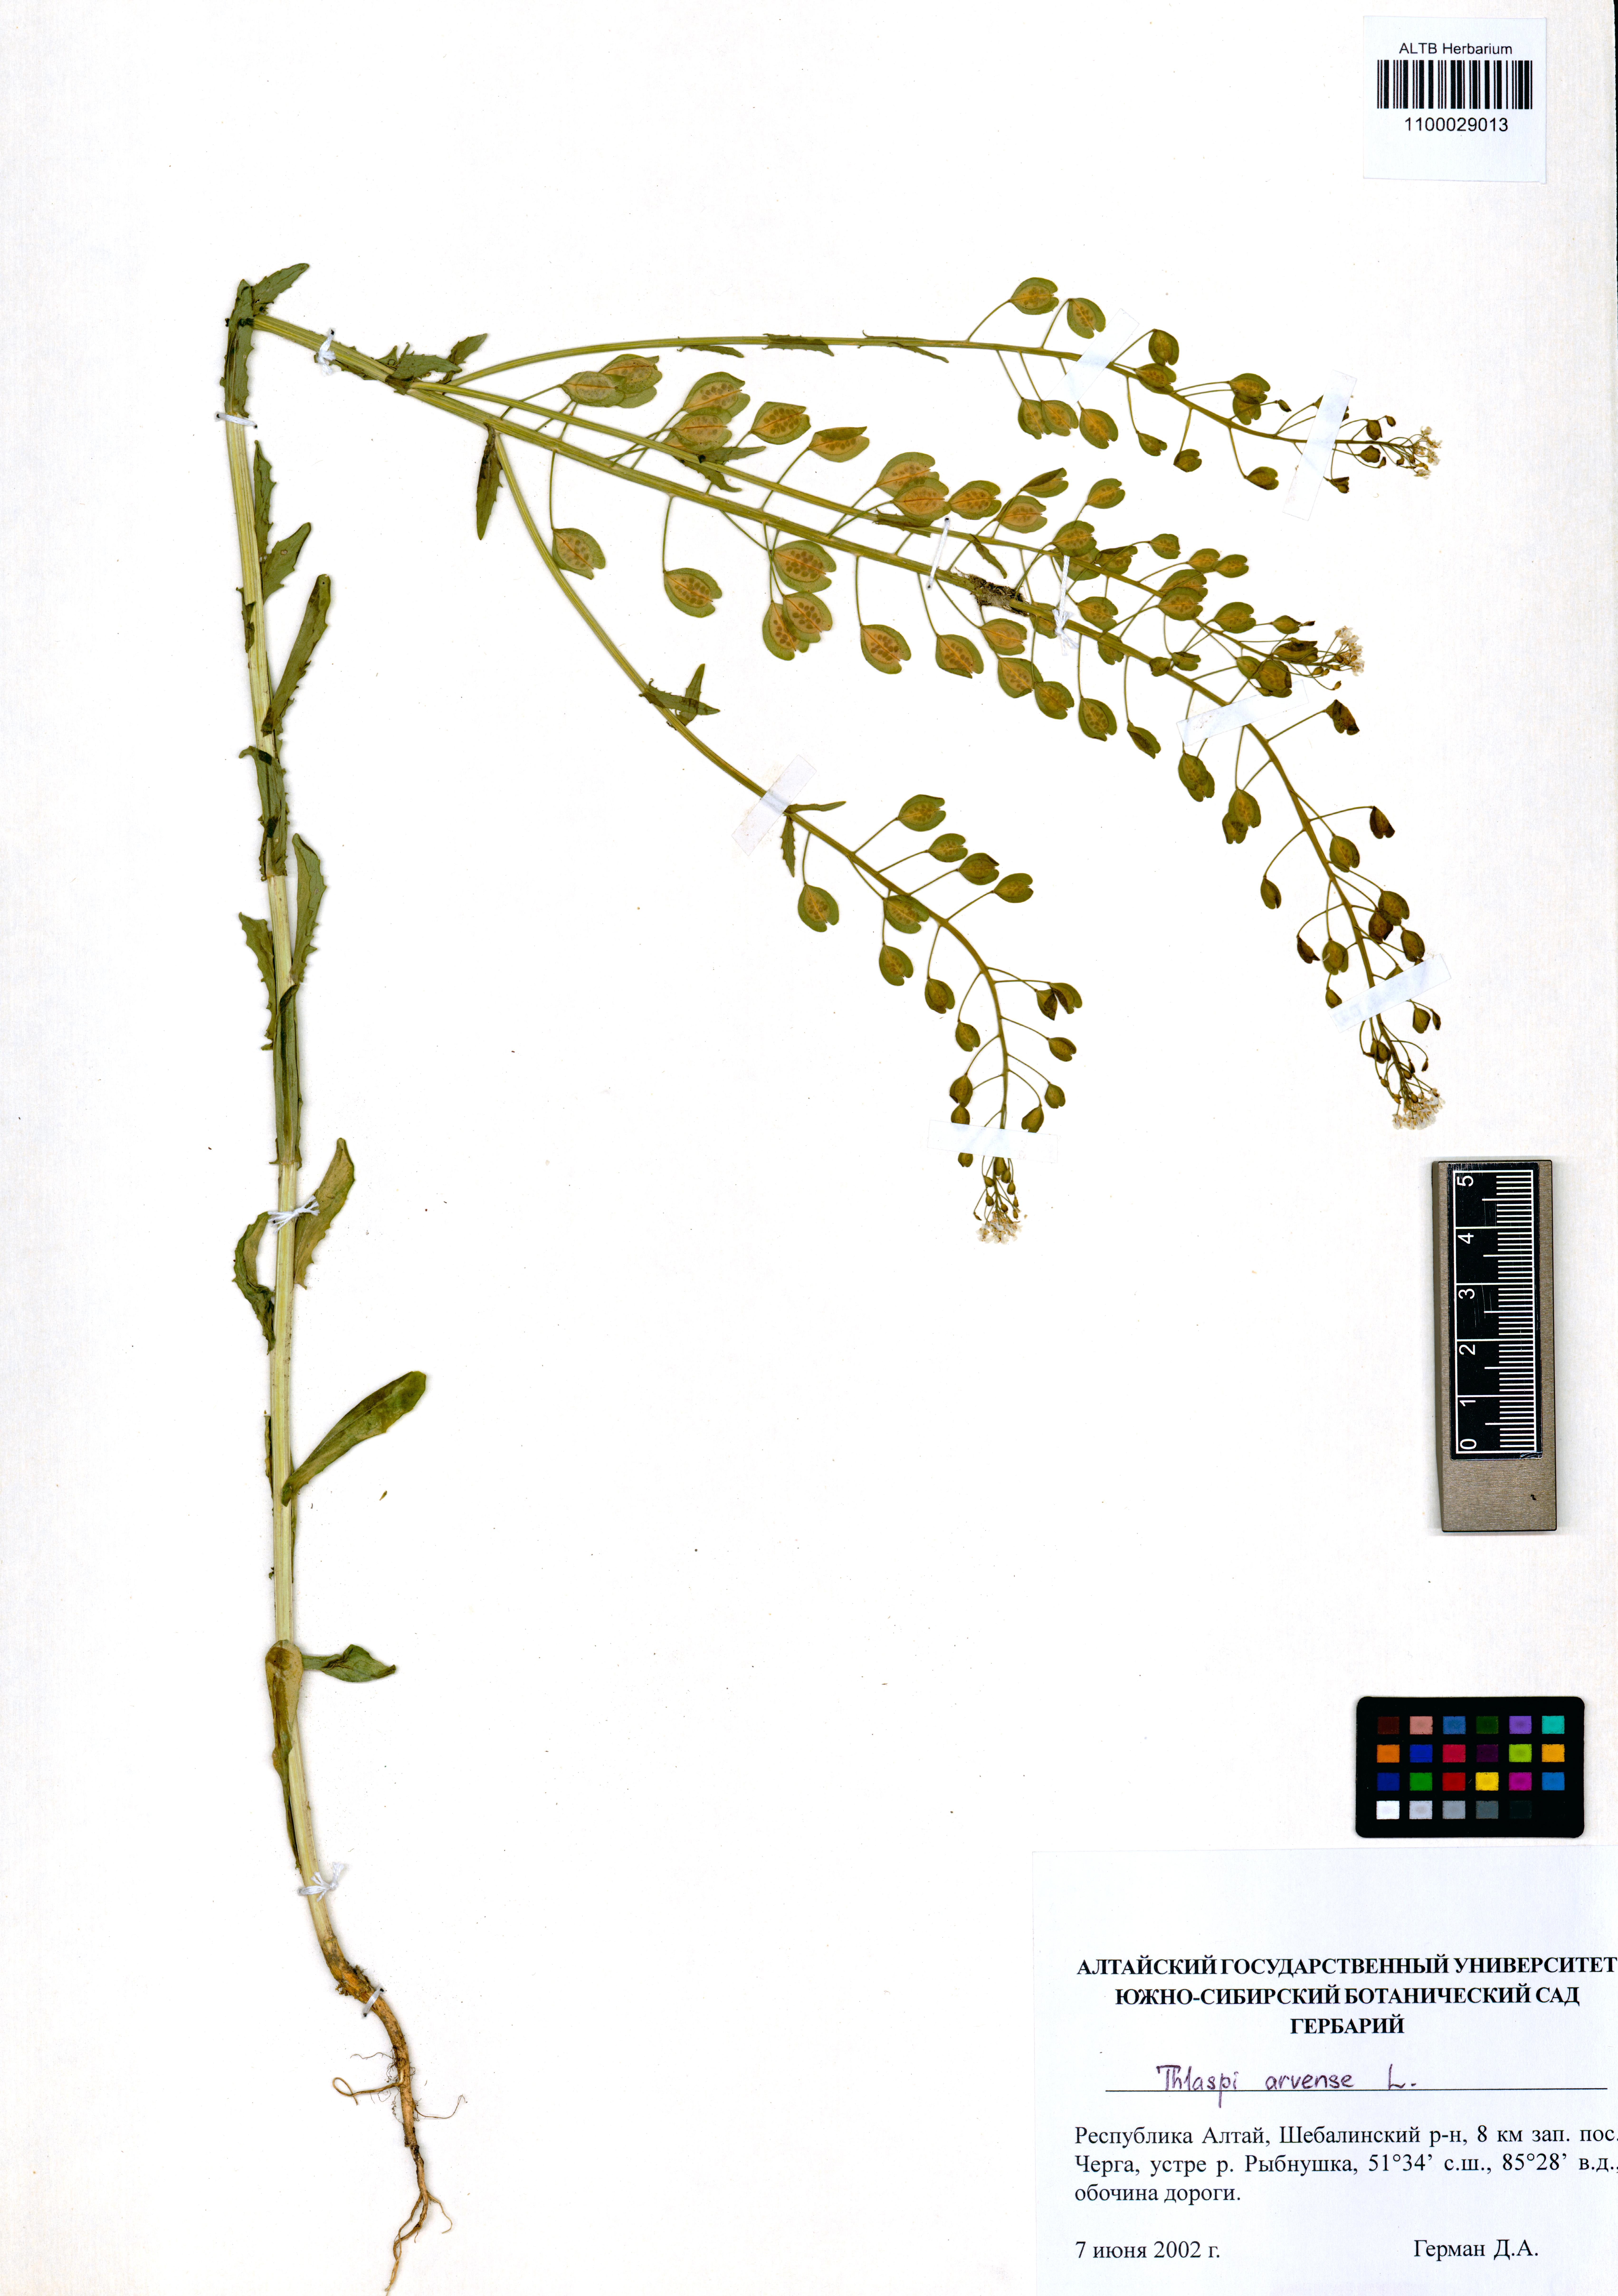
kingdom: Plantae
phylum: Tracheophyta
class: Magnoliopsida
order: Brassicales
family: Brassicaceae
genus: Thlaspi
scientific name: Thlaspi arvense
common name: Field pennycress
